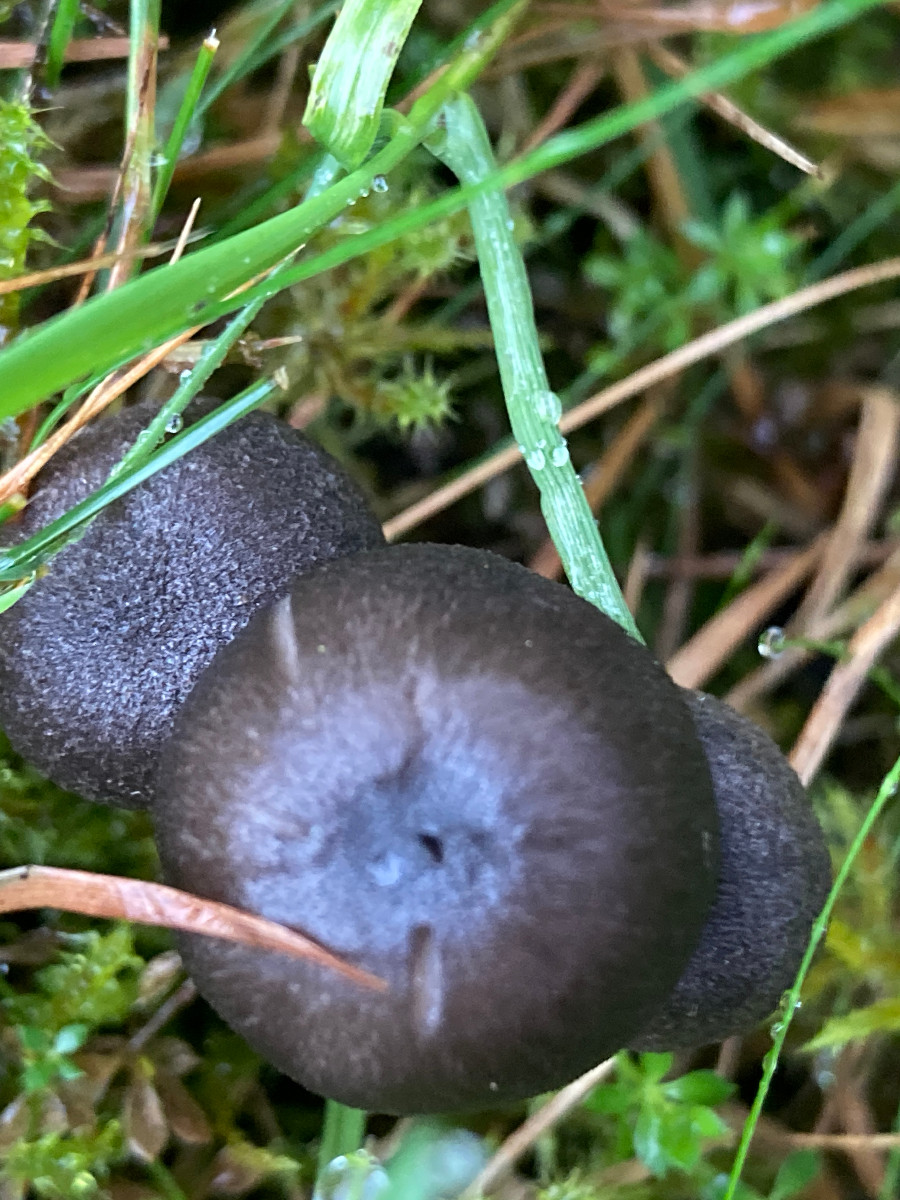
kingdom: Fungi
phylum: Basidiomycota
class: Agaricomycetes
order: Agaricales
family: Entolomataceae
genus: Entoloma
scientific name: Entoloma atrocoeruleum
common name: sortblå rødblad
